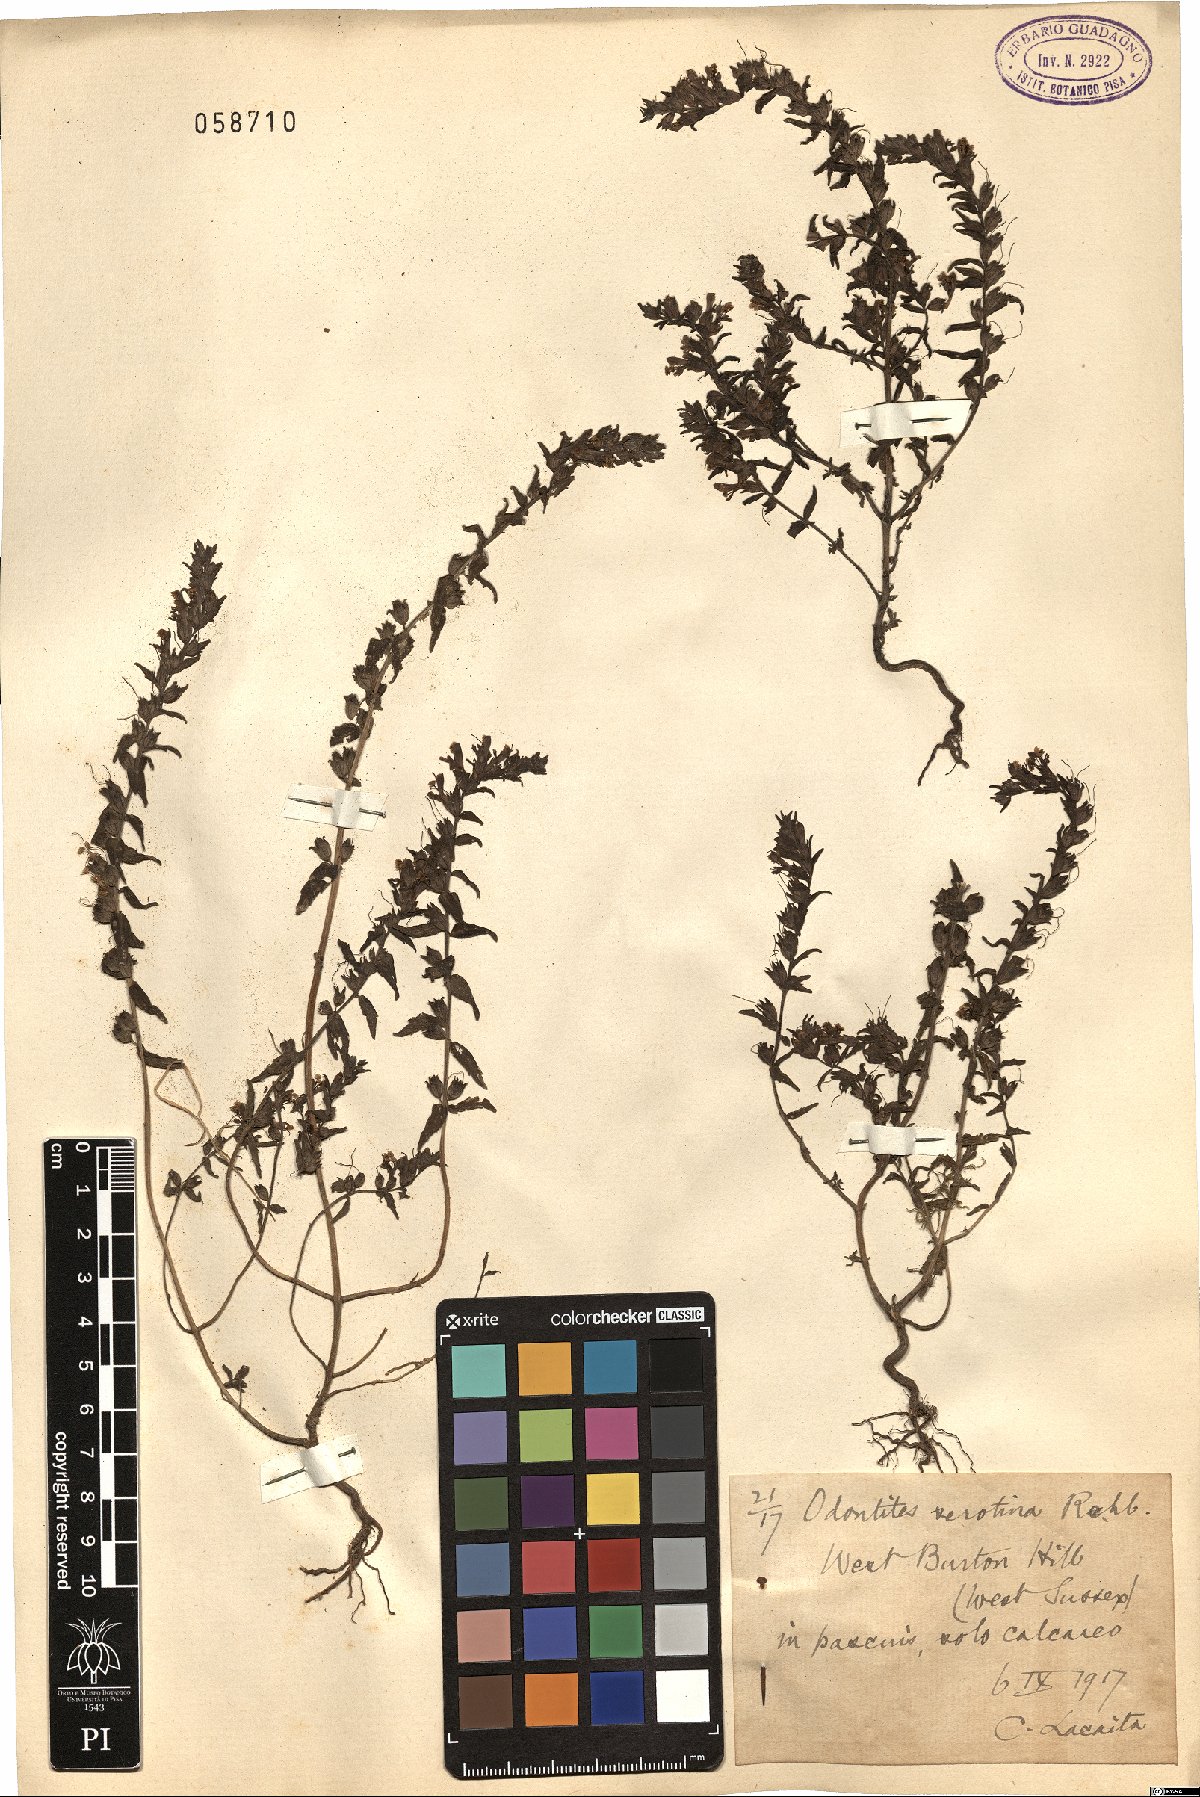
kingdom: Plantae
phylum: Tracheophyta
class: Magnoliopsida
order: Lamiales
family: Orobanchaceae
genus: Odontites
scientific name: Odontites vulgaris
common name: Broomrape
